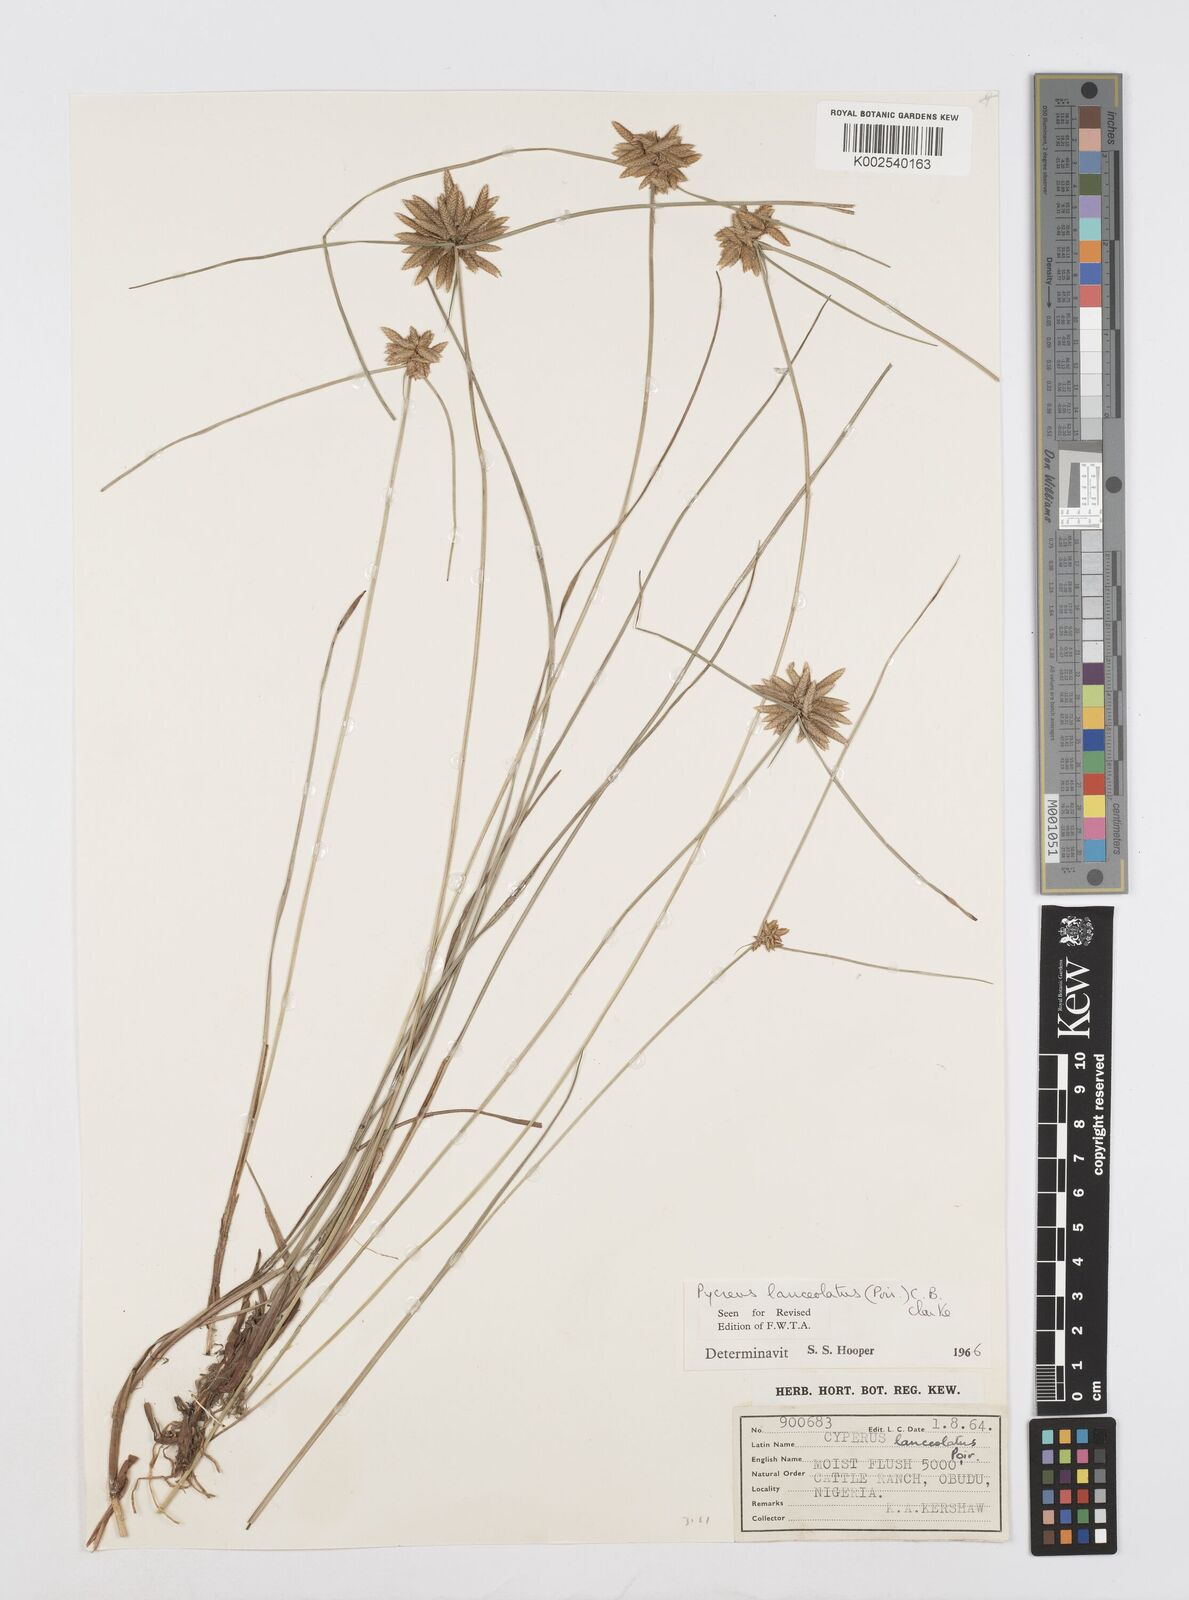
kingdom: Plantae
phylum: Tracheophyta
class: Liliopsida
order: Poales
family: Cyperaceae
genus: Cyperus
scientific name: Cyperus
